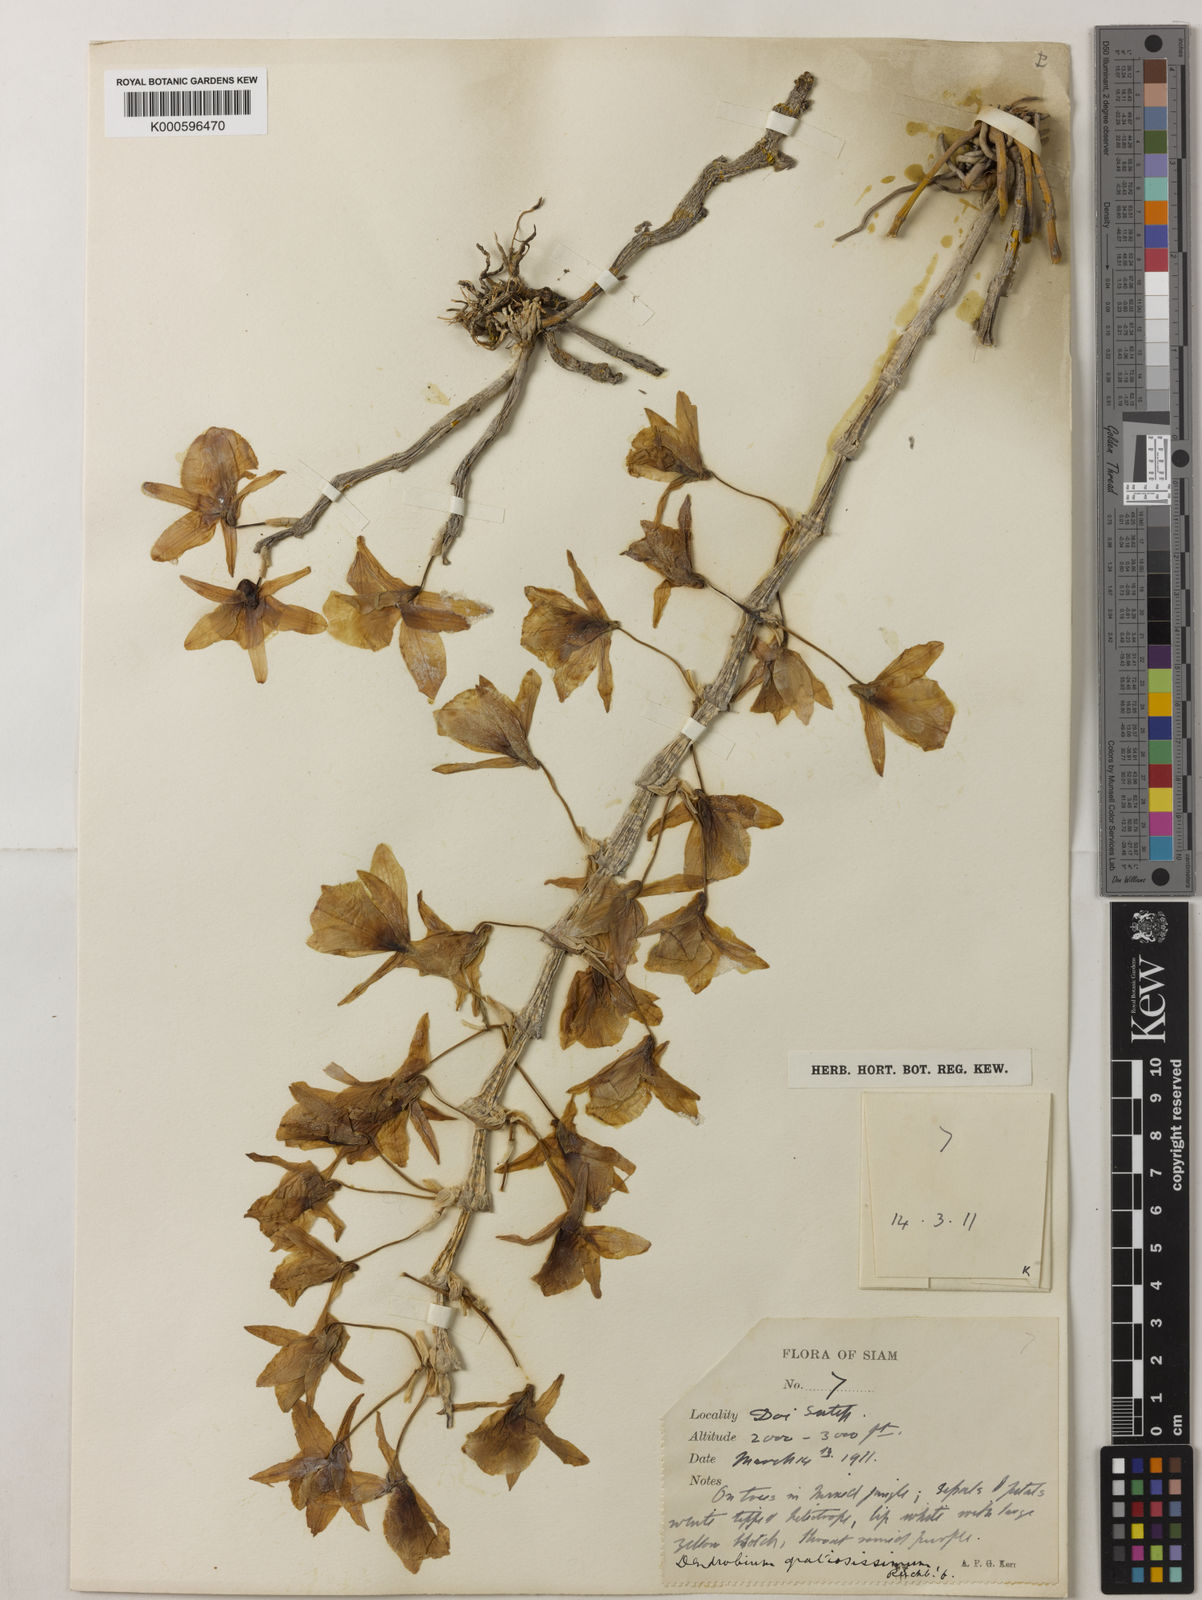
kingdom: Plantae
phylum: Tracheophyta
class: Liliopsida
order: Asparagales
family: Orchidaceae
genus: Dendrobium
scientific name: Dendrobium gratiosissimum
